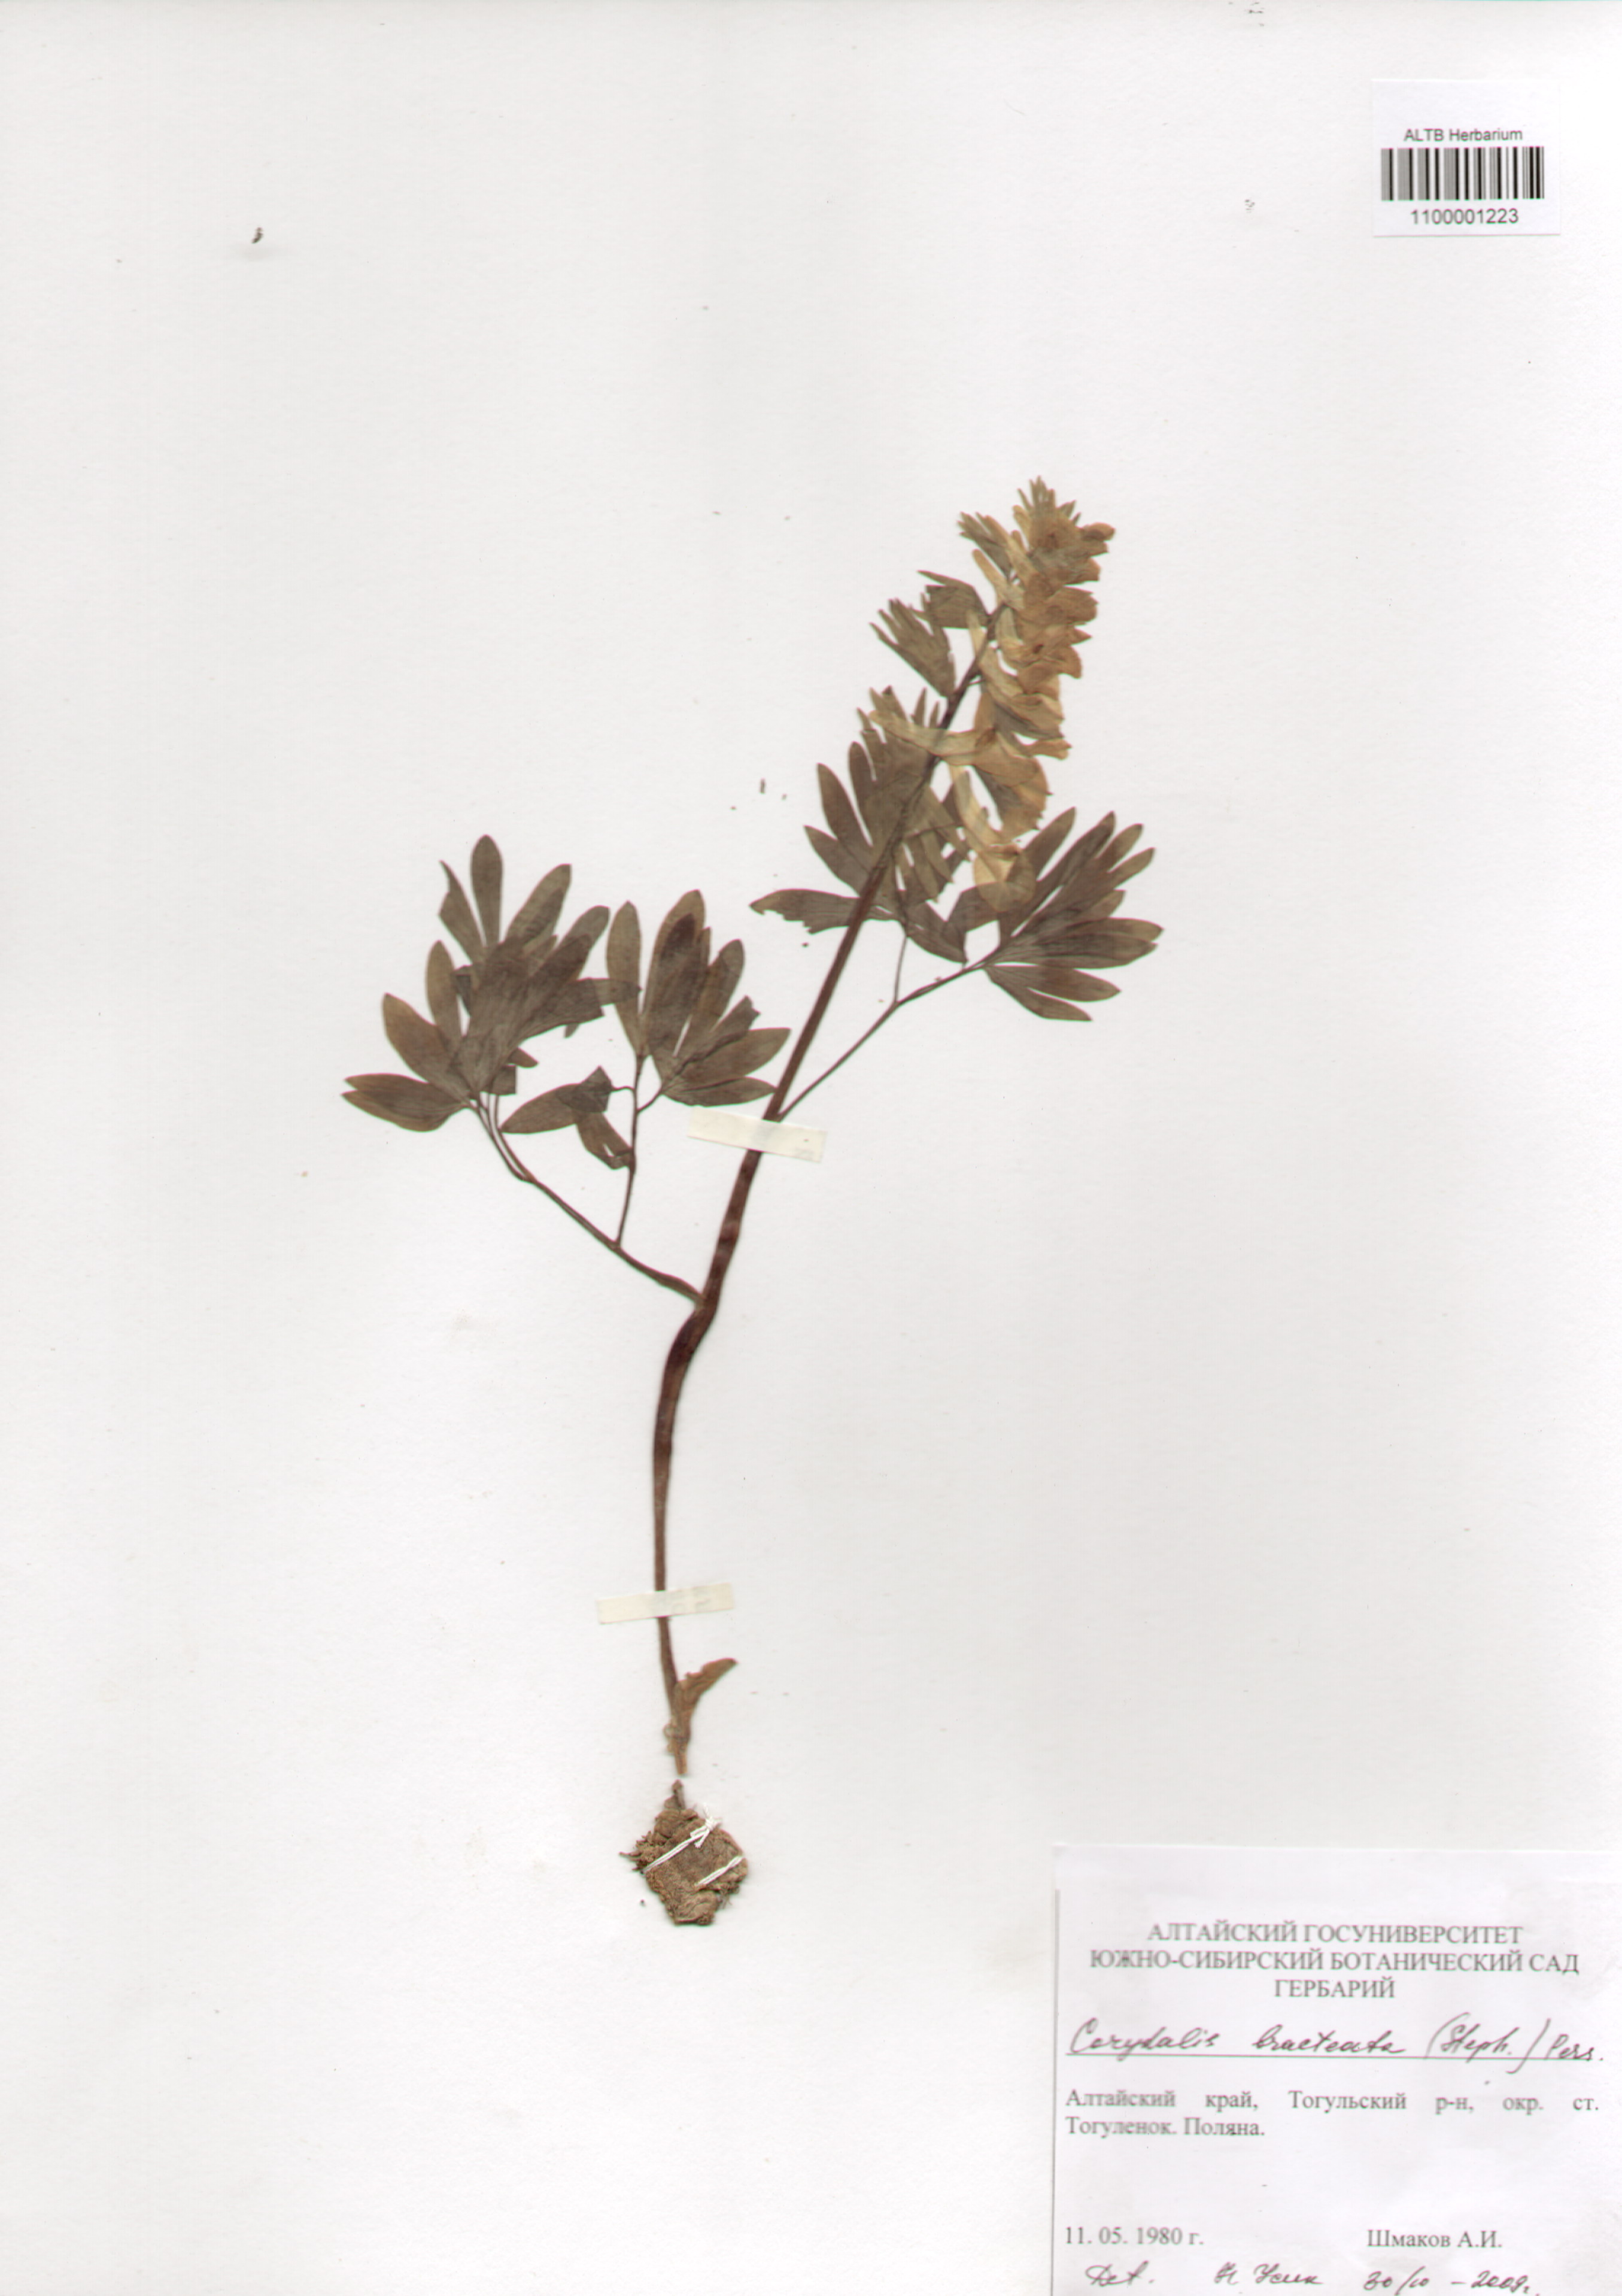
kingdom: Plantae
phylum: Tracheophyta
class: Magnoliopsida
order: Ranunculales
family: Papaveraceae
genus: Corydalis
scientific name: Corydalis bracteata
